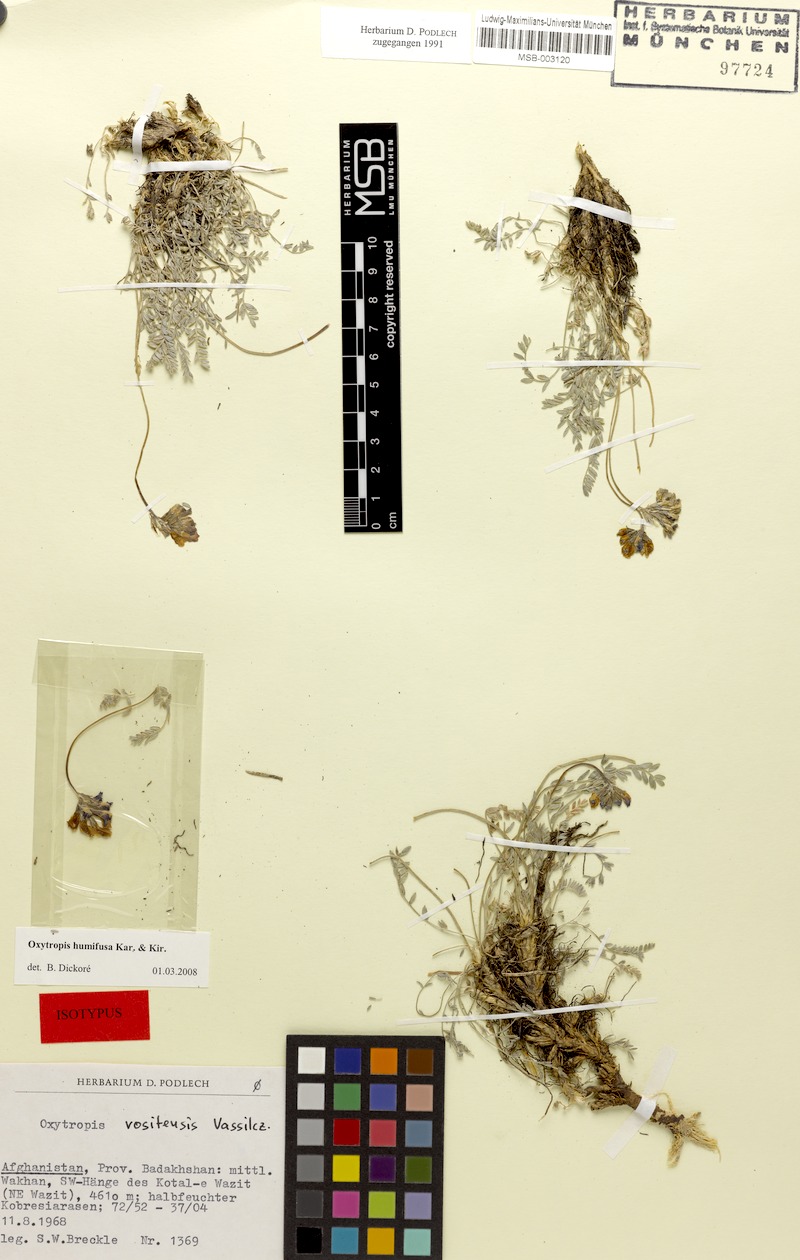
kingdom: Plantae
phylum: Tracheophyta
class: Magnoliopsida
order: Fabales
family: Fabaceae
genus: Oxytropis
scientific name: Oxytropis humifusa
